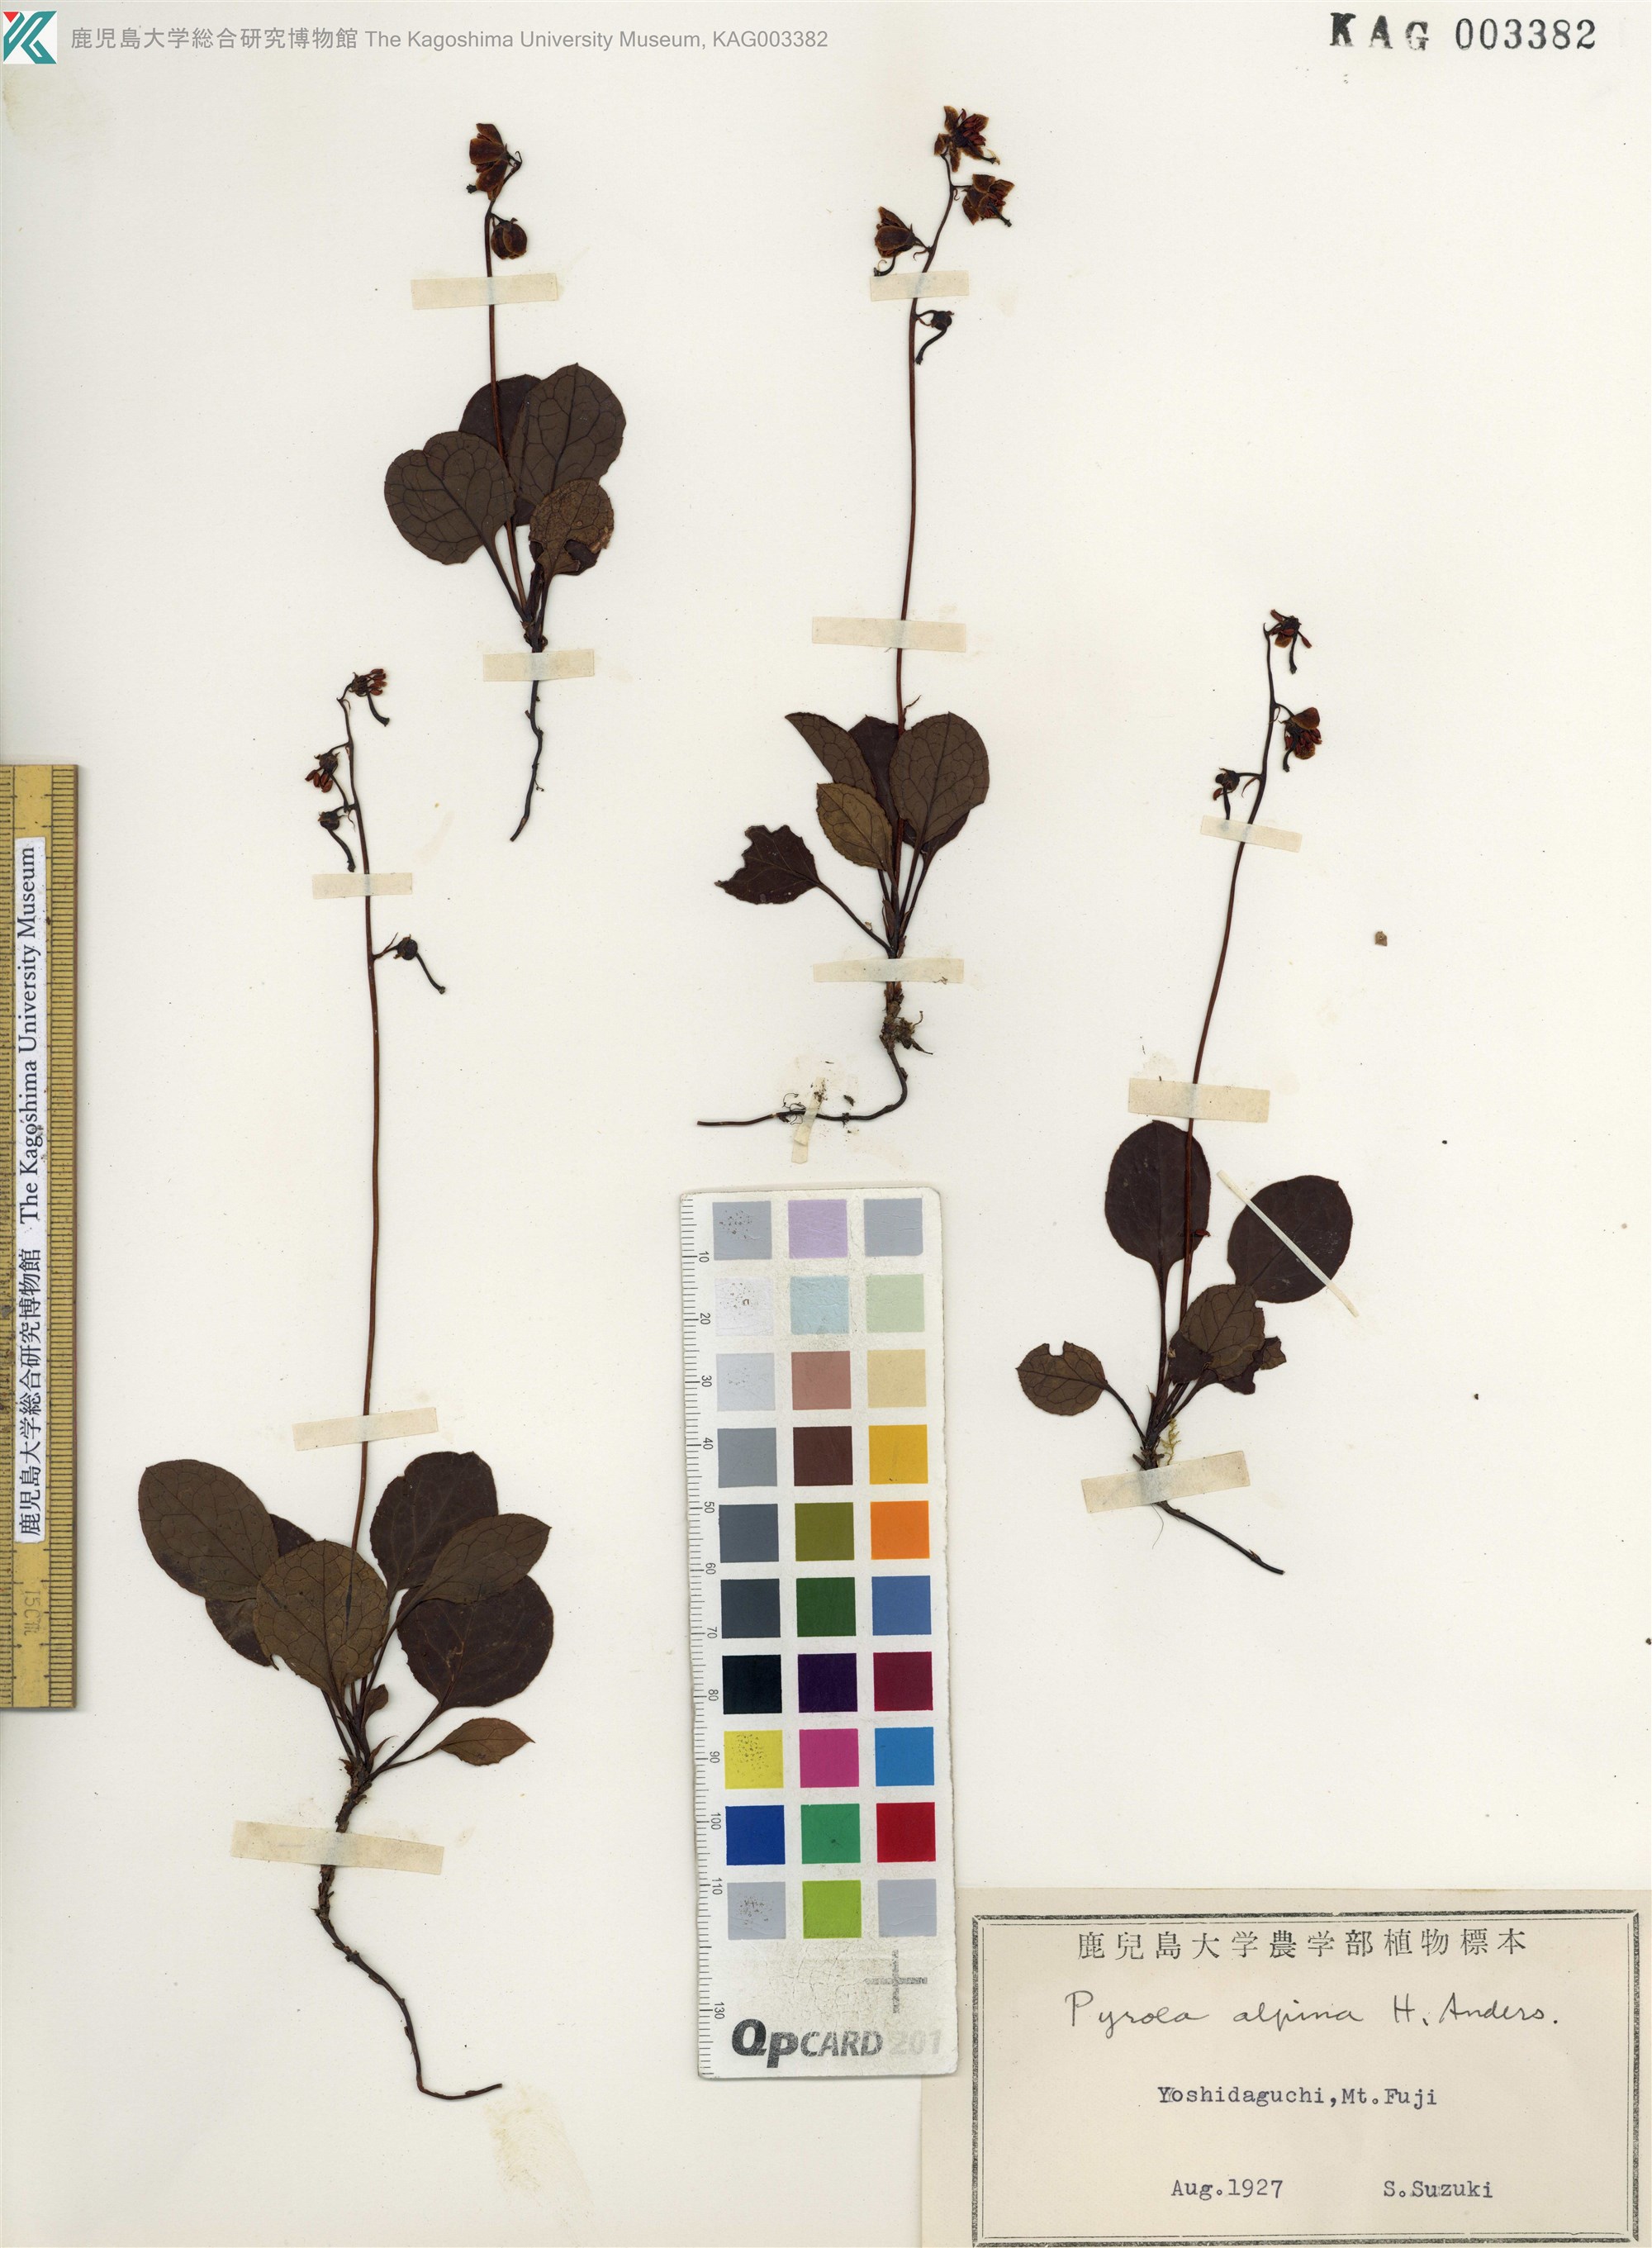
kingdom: Plantae
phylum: Tracheophyta
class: Magnoliopsida
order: Ericales
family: Ericaceae
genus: Pyrola
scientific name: Pyrola alpina
